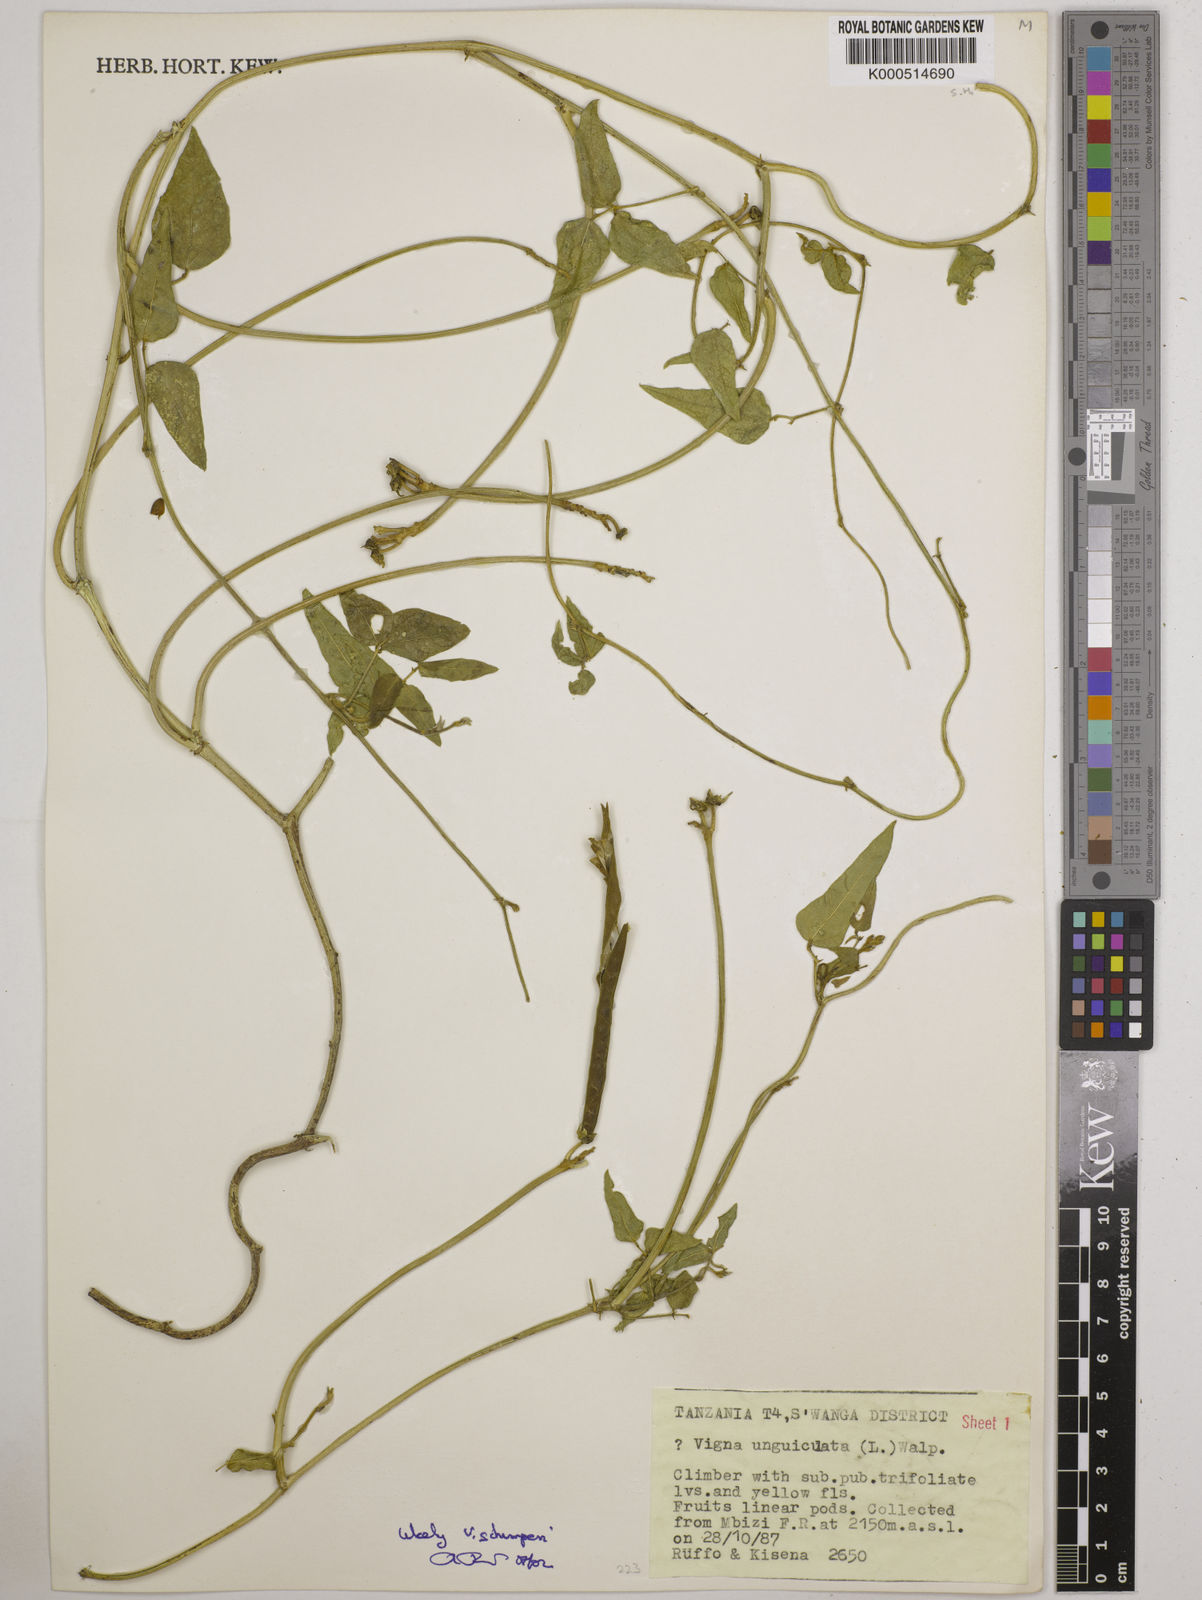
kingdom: Plantae
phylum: Tracheophyta
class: Magnoliopsida
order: Fabales
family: Fabaceae
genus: Vigna
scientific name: Vigna schimperi
